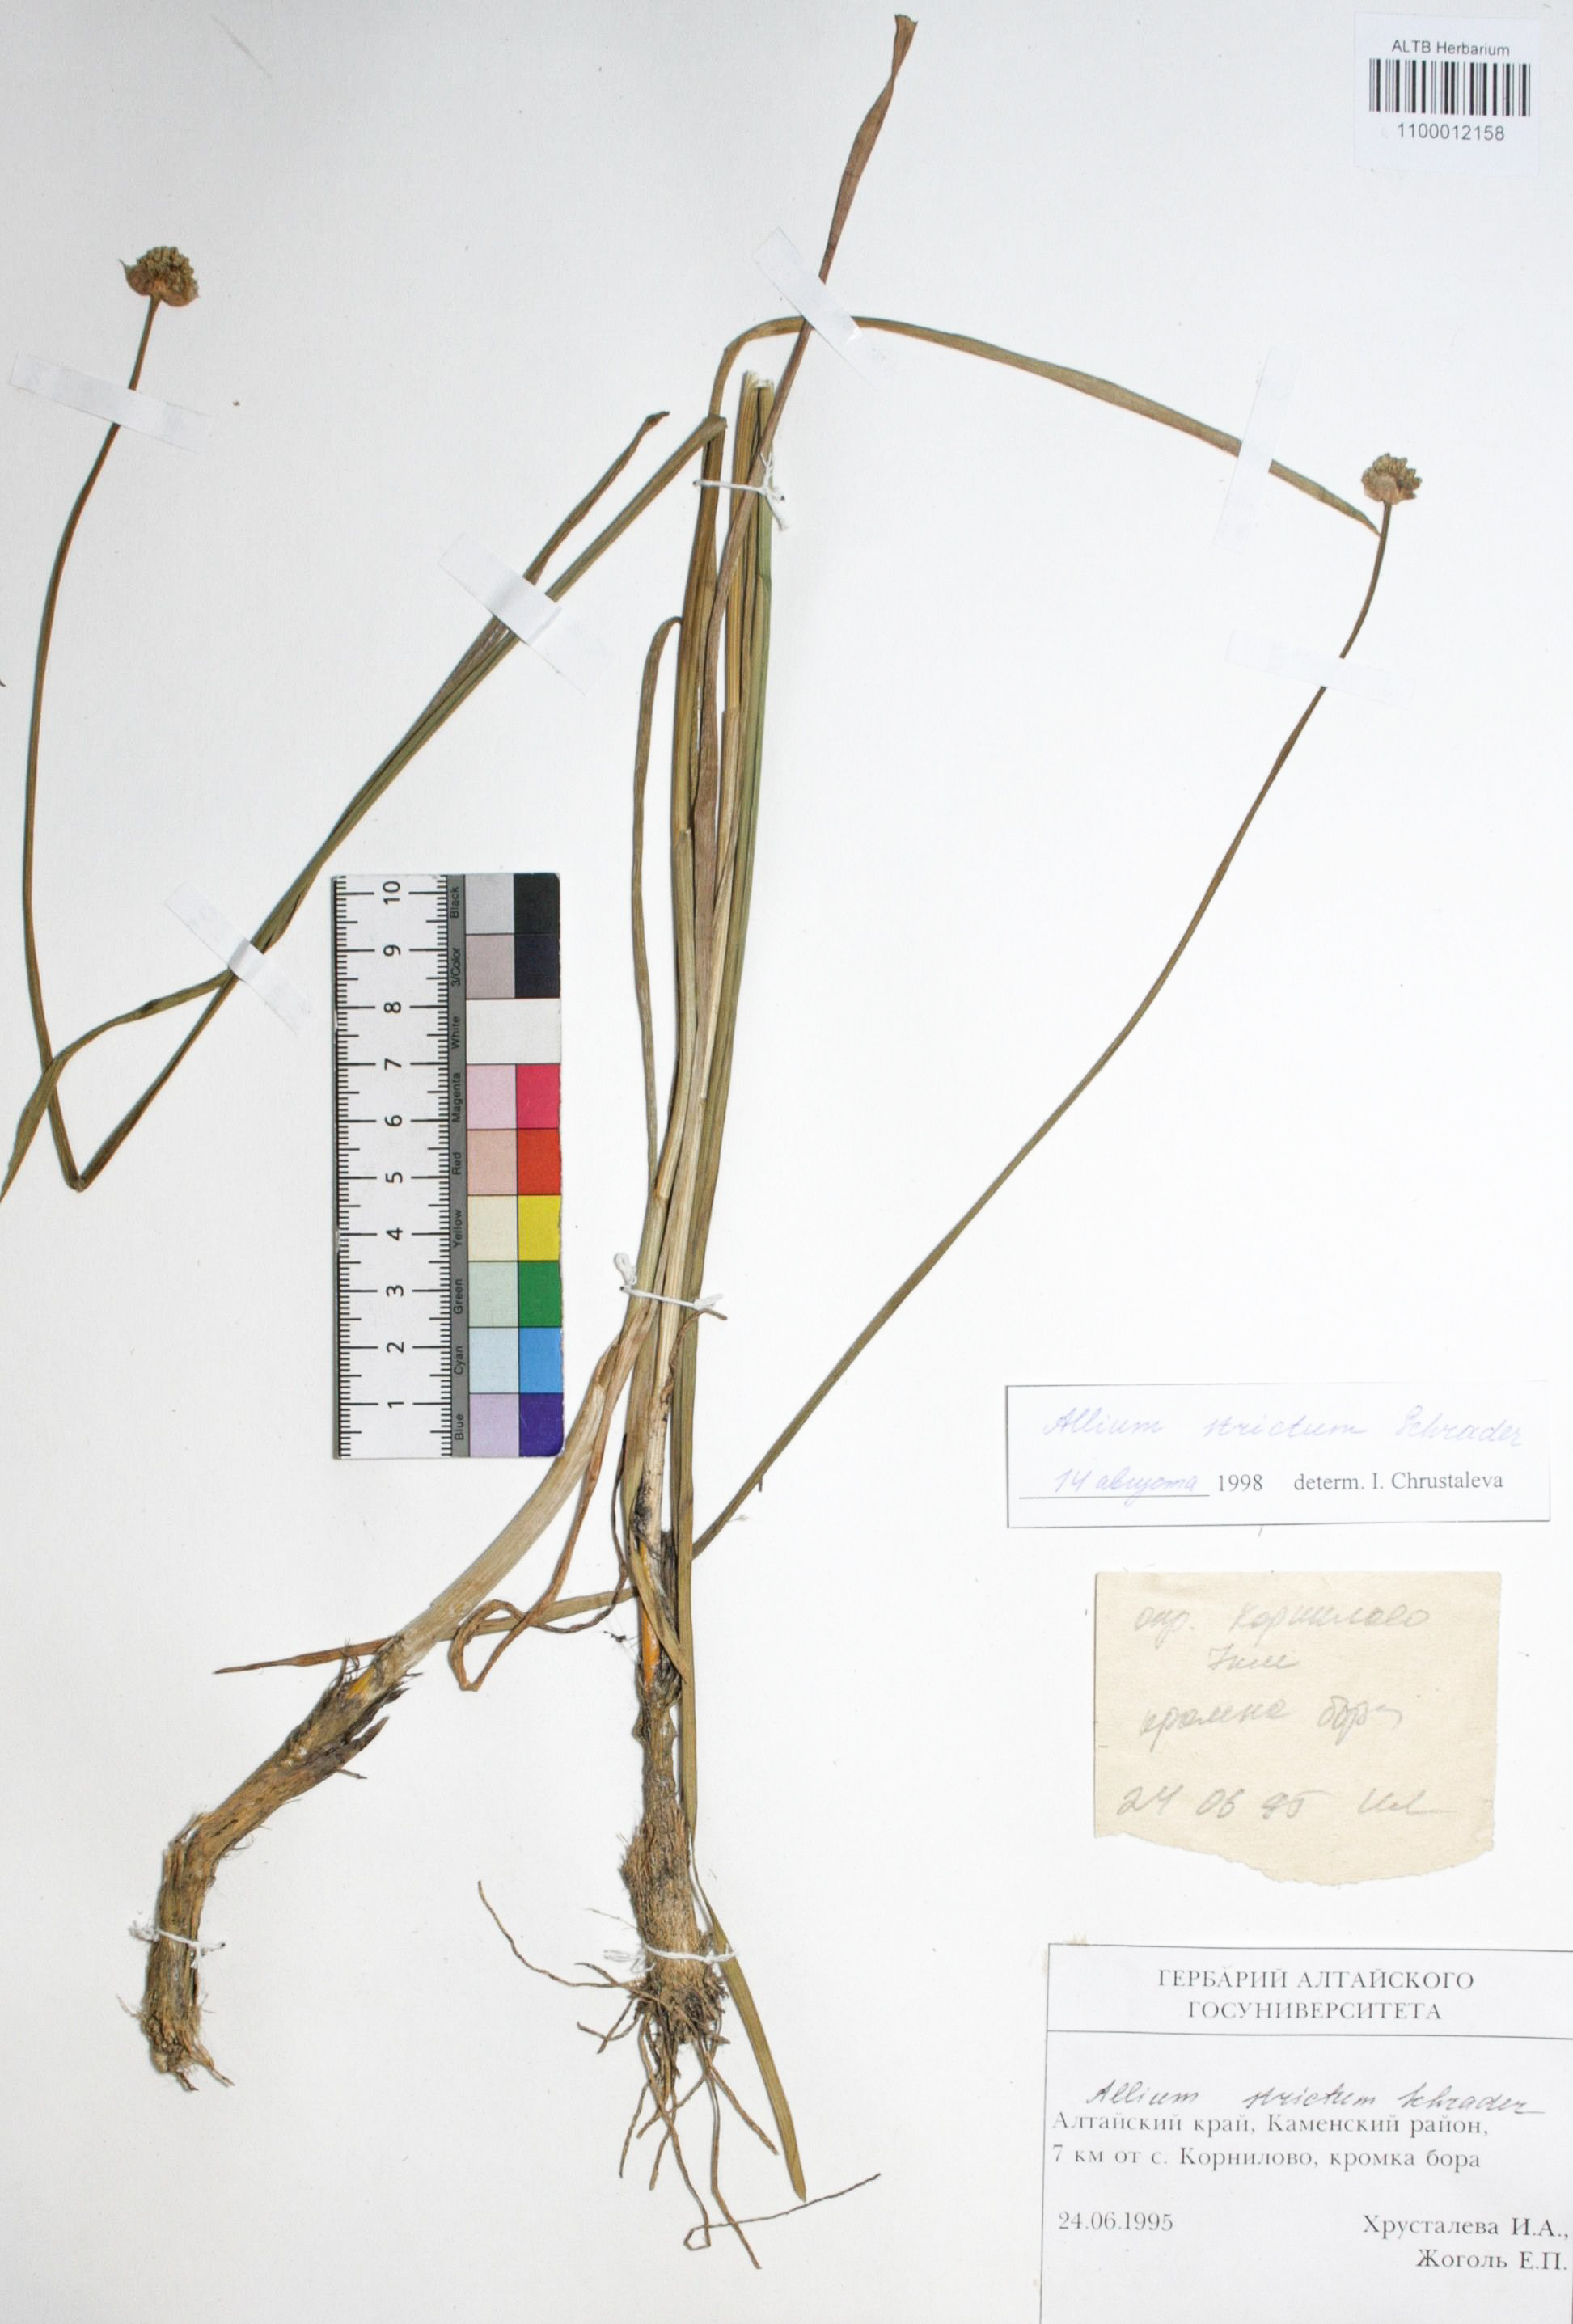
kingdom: Plantae
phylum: Tracheophyta
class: Liliopsida
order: Asparagales
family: Amaryllidaceae
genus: Allium
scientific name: Allium strictum
